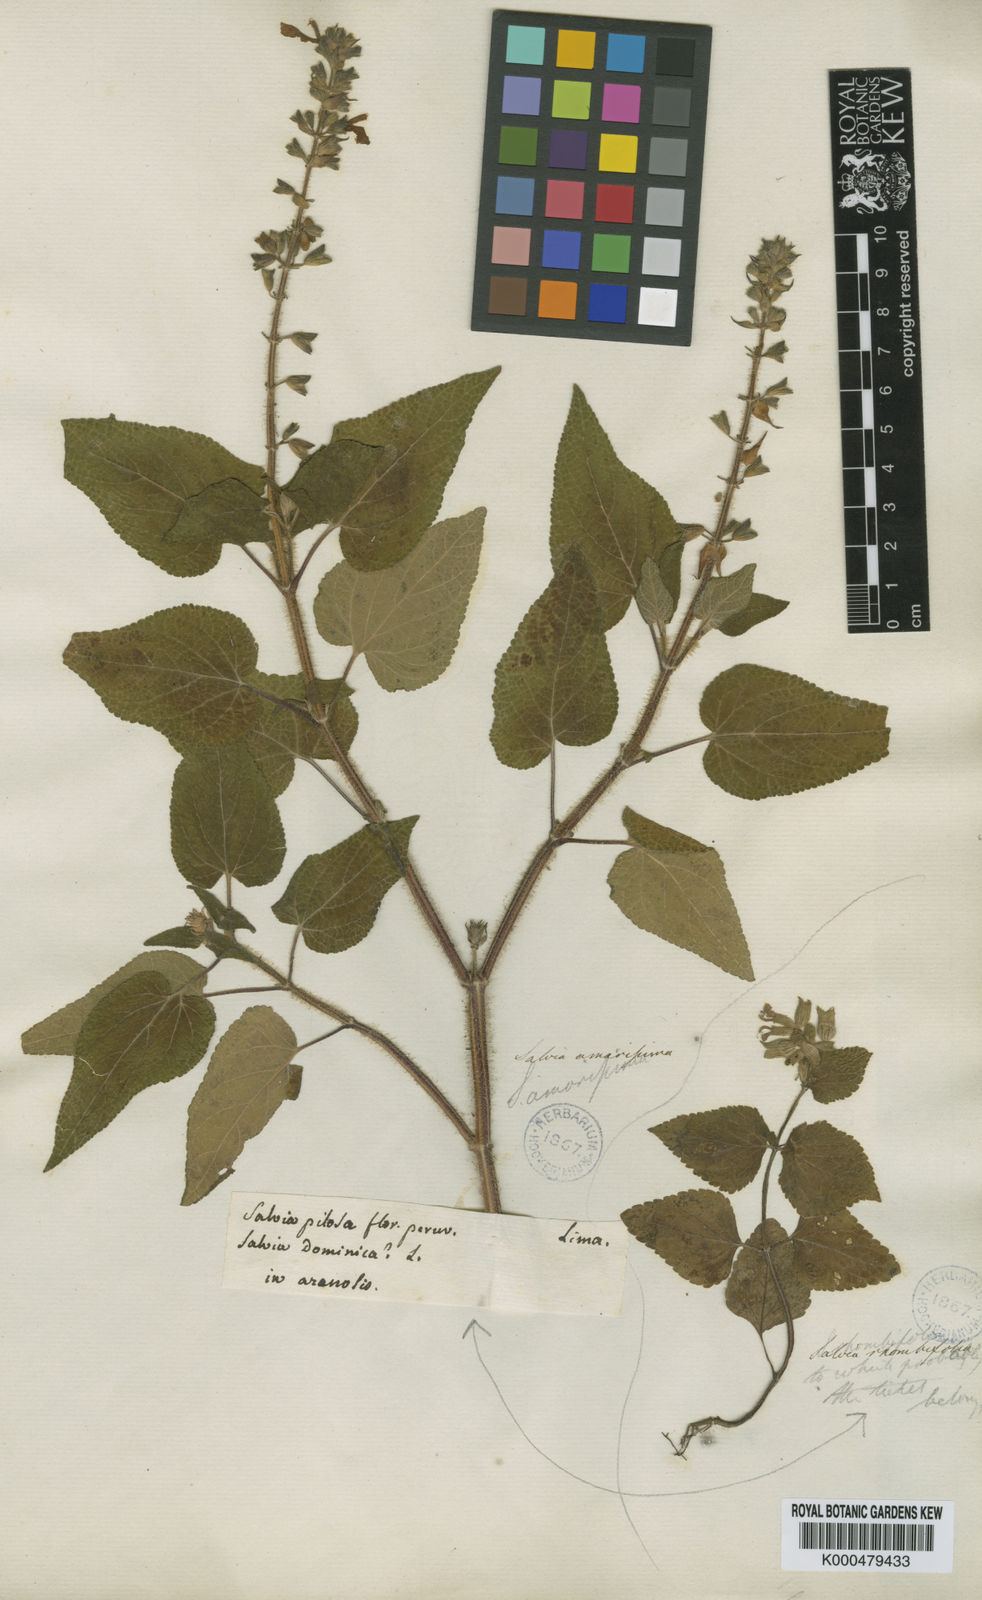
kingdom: Plantae
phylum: Tracheophyta
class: Magnoliopsida
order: Lamiales
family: Lamiaceae
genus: Salvia
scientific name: Salvia dominica
